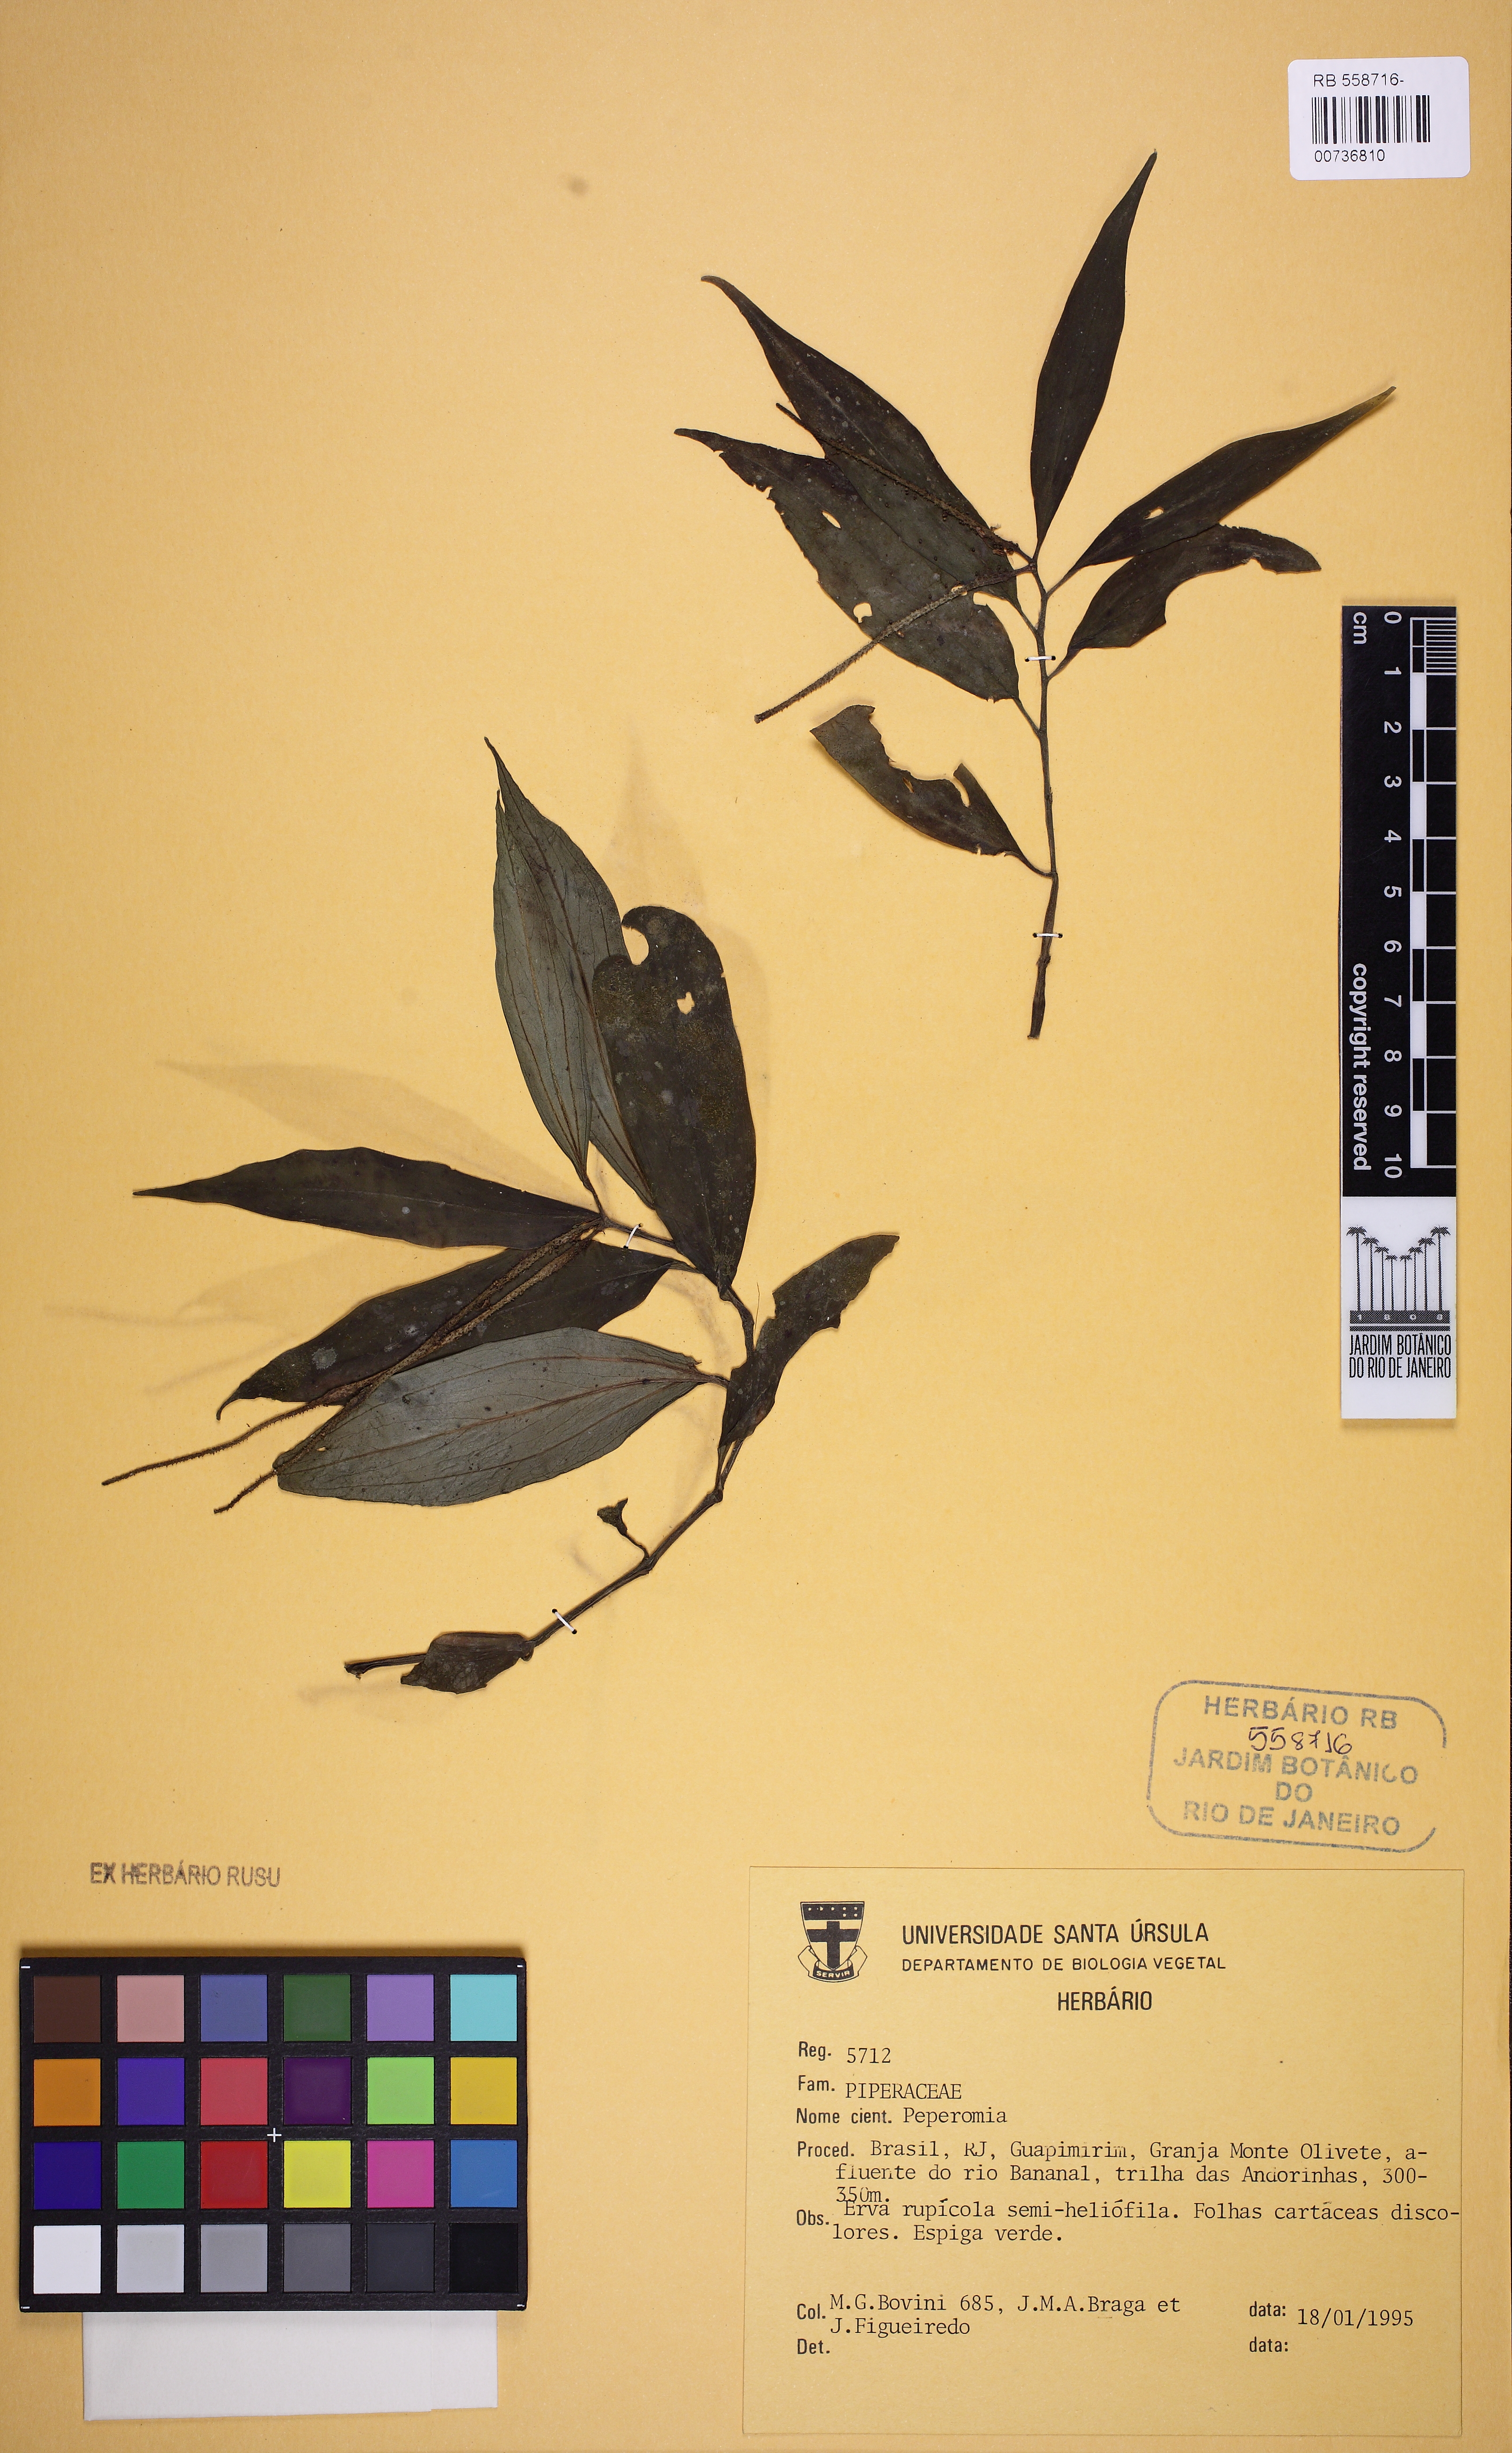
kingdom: Plantae
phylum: Tracheophyta
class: Magnoliopsida
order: Piperales
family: Piperaceae
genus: Peperomia
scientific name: Peperomia alata
